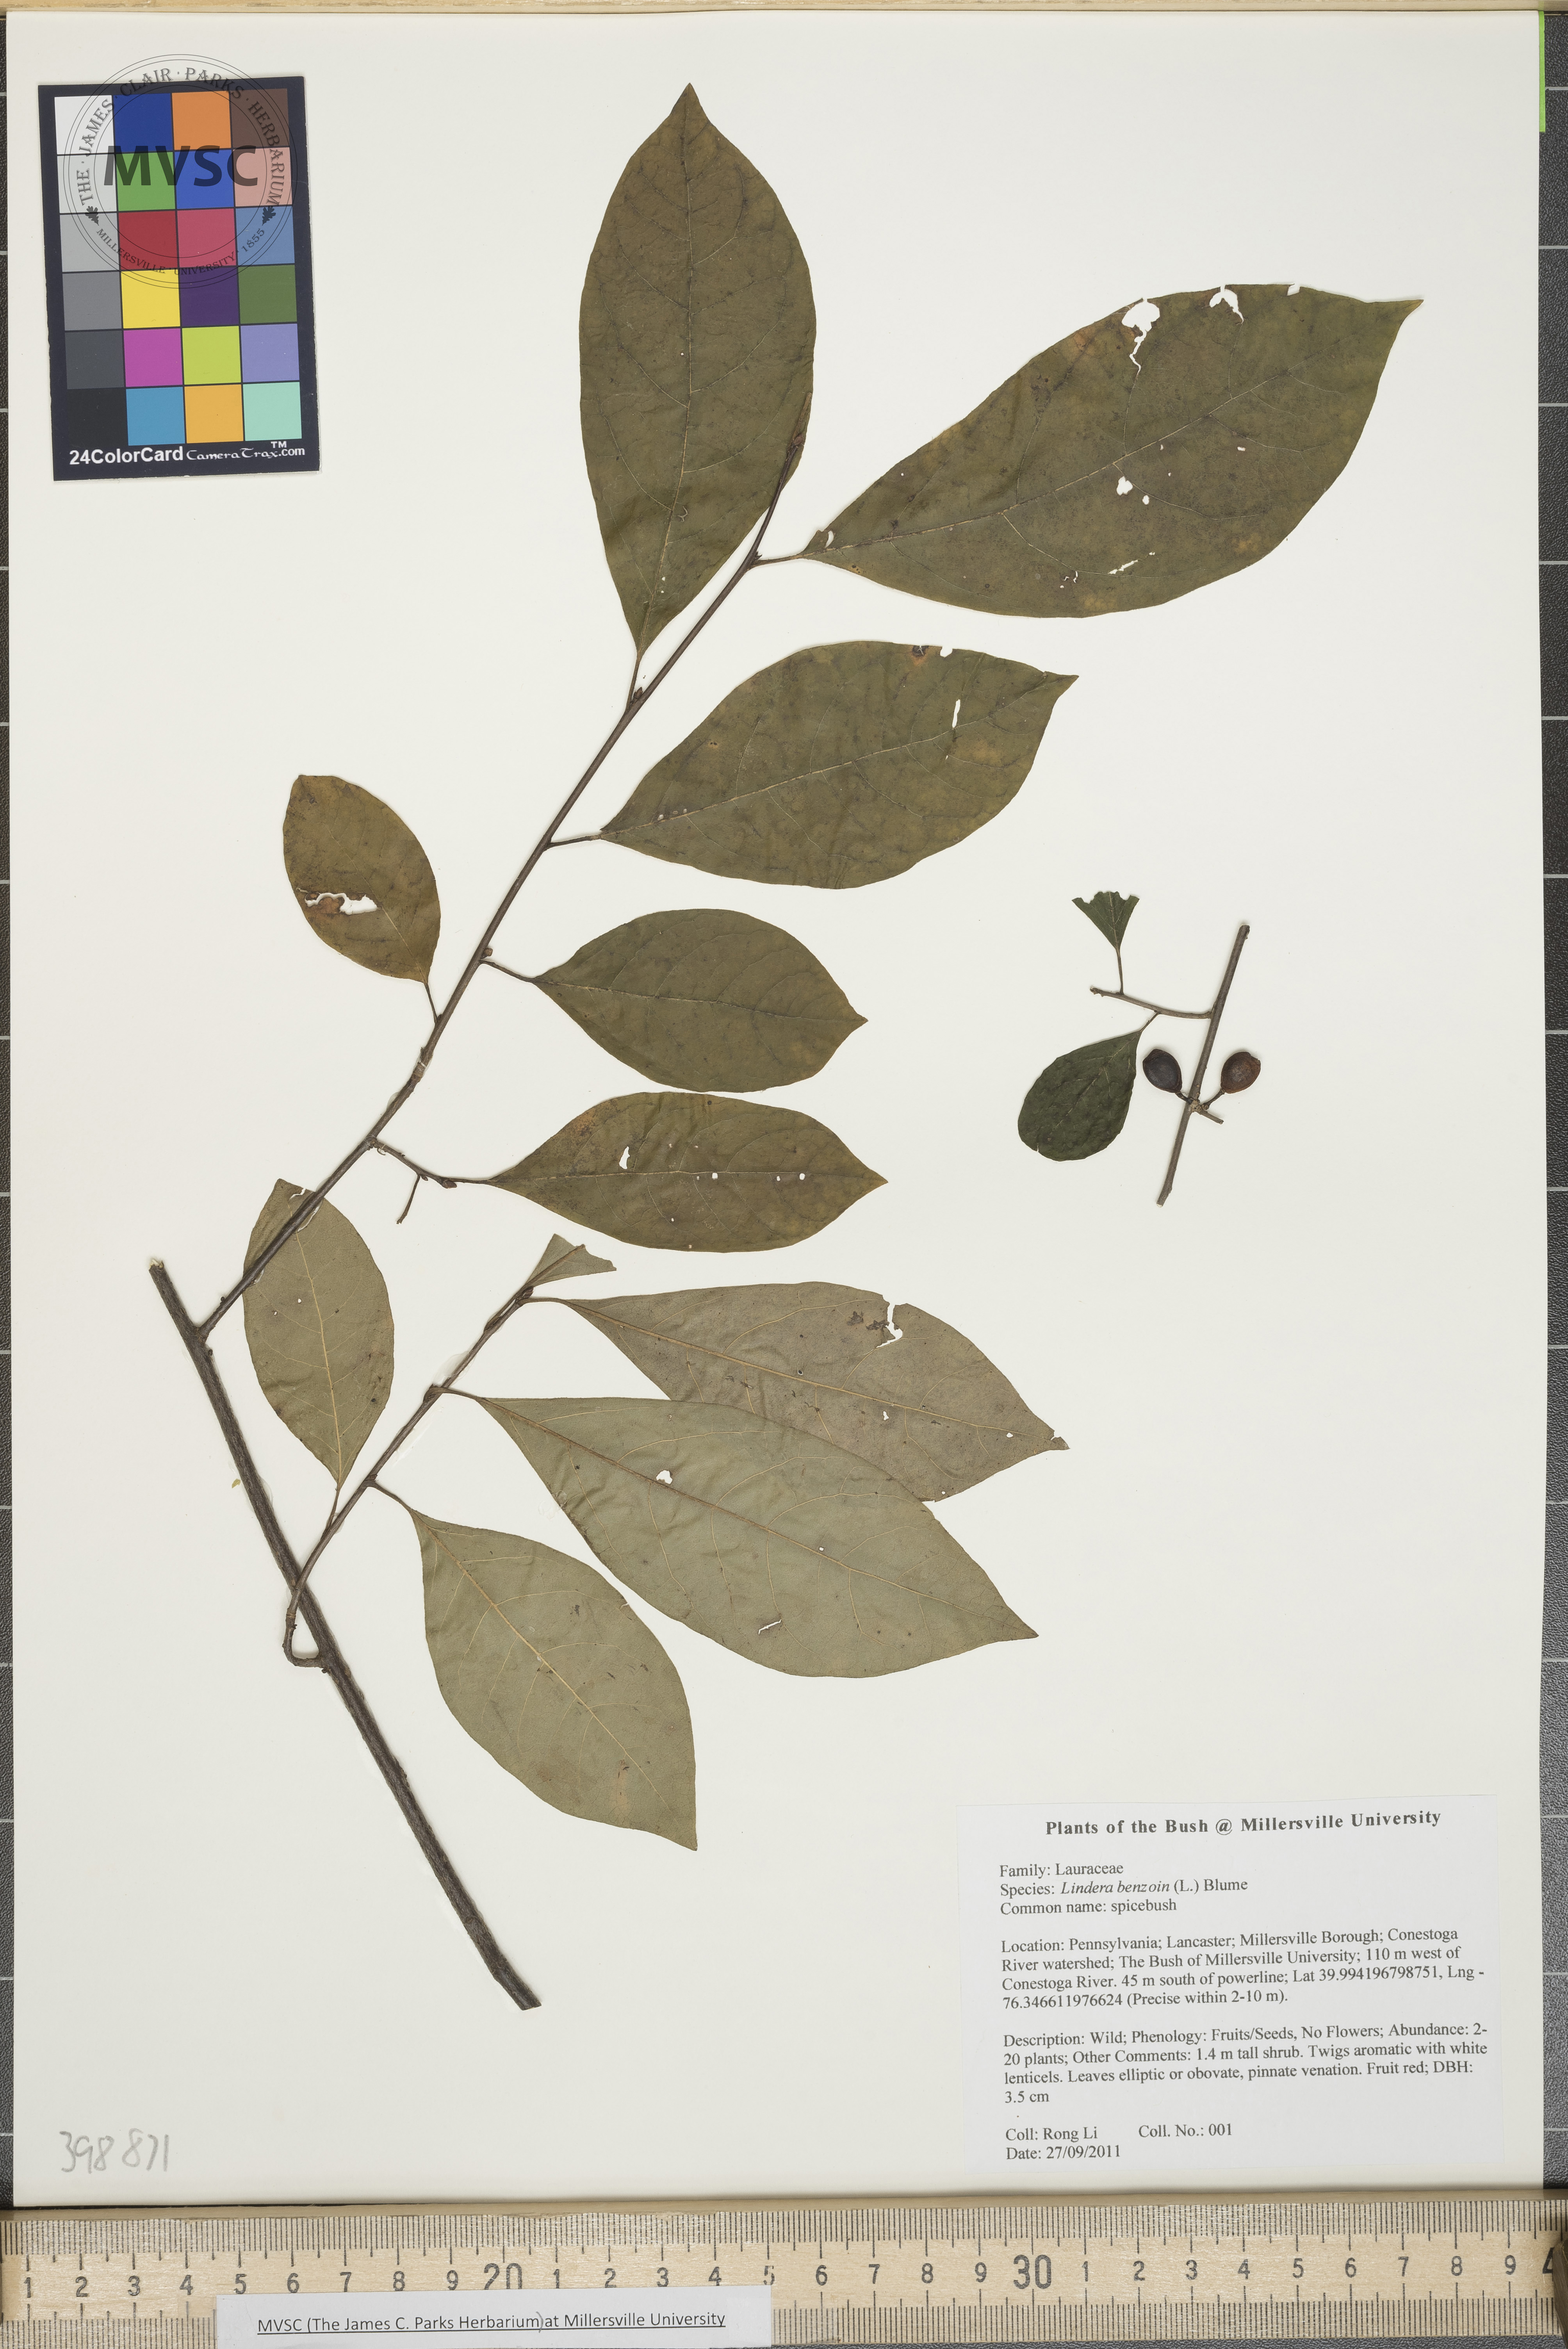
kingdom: Plantae
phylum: Tracheophyta
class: Magnoliopsida
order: Laurales
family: Lauraceae
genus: Lindera
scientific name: Lindera benzoin
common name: Spicebush
